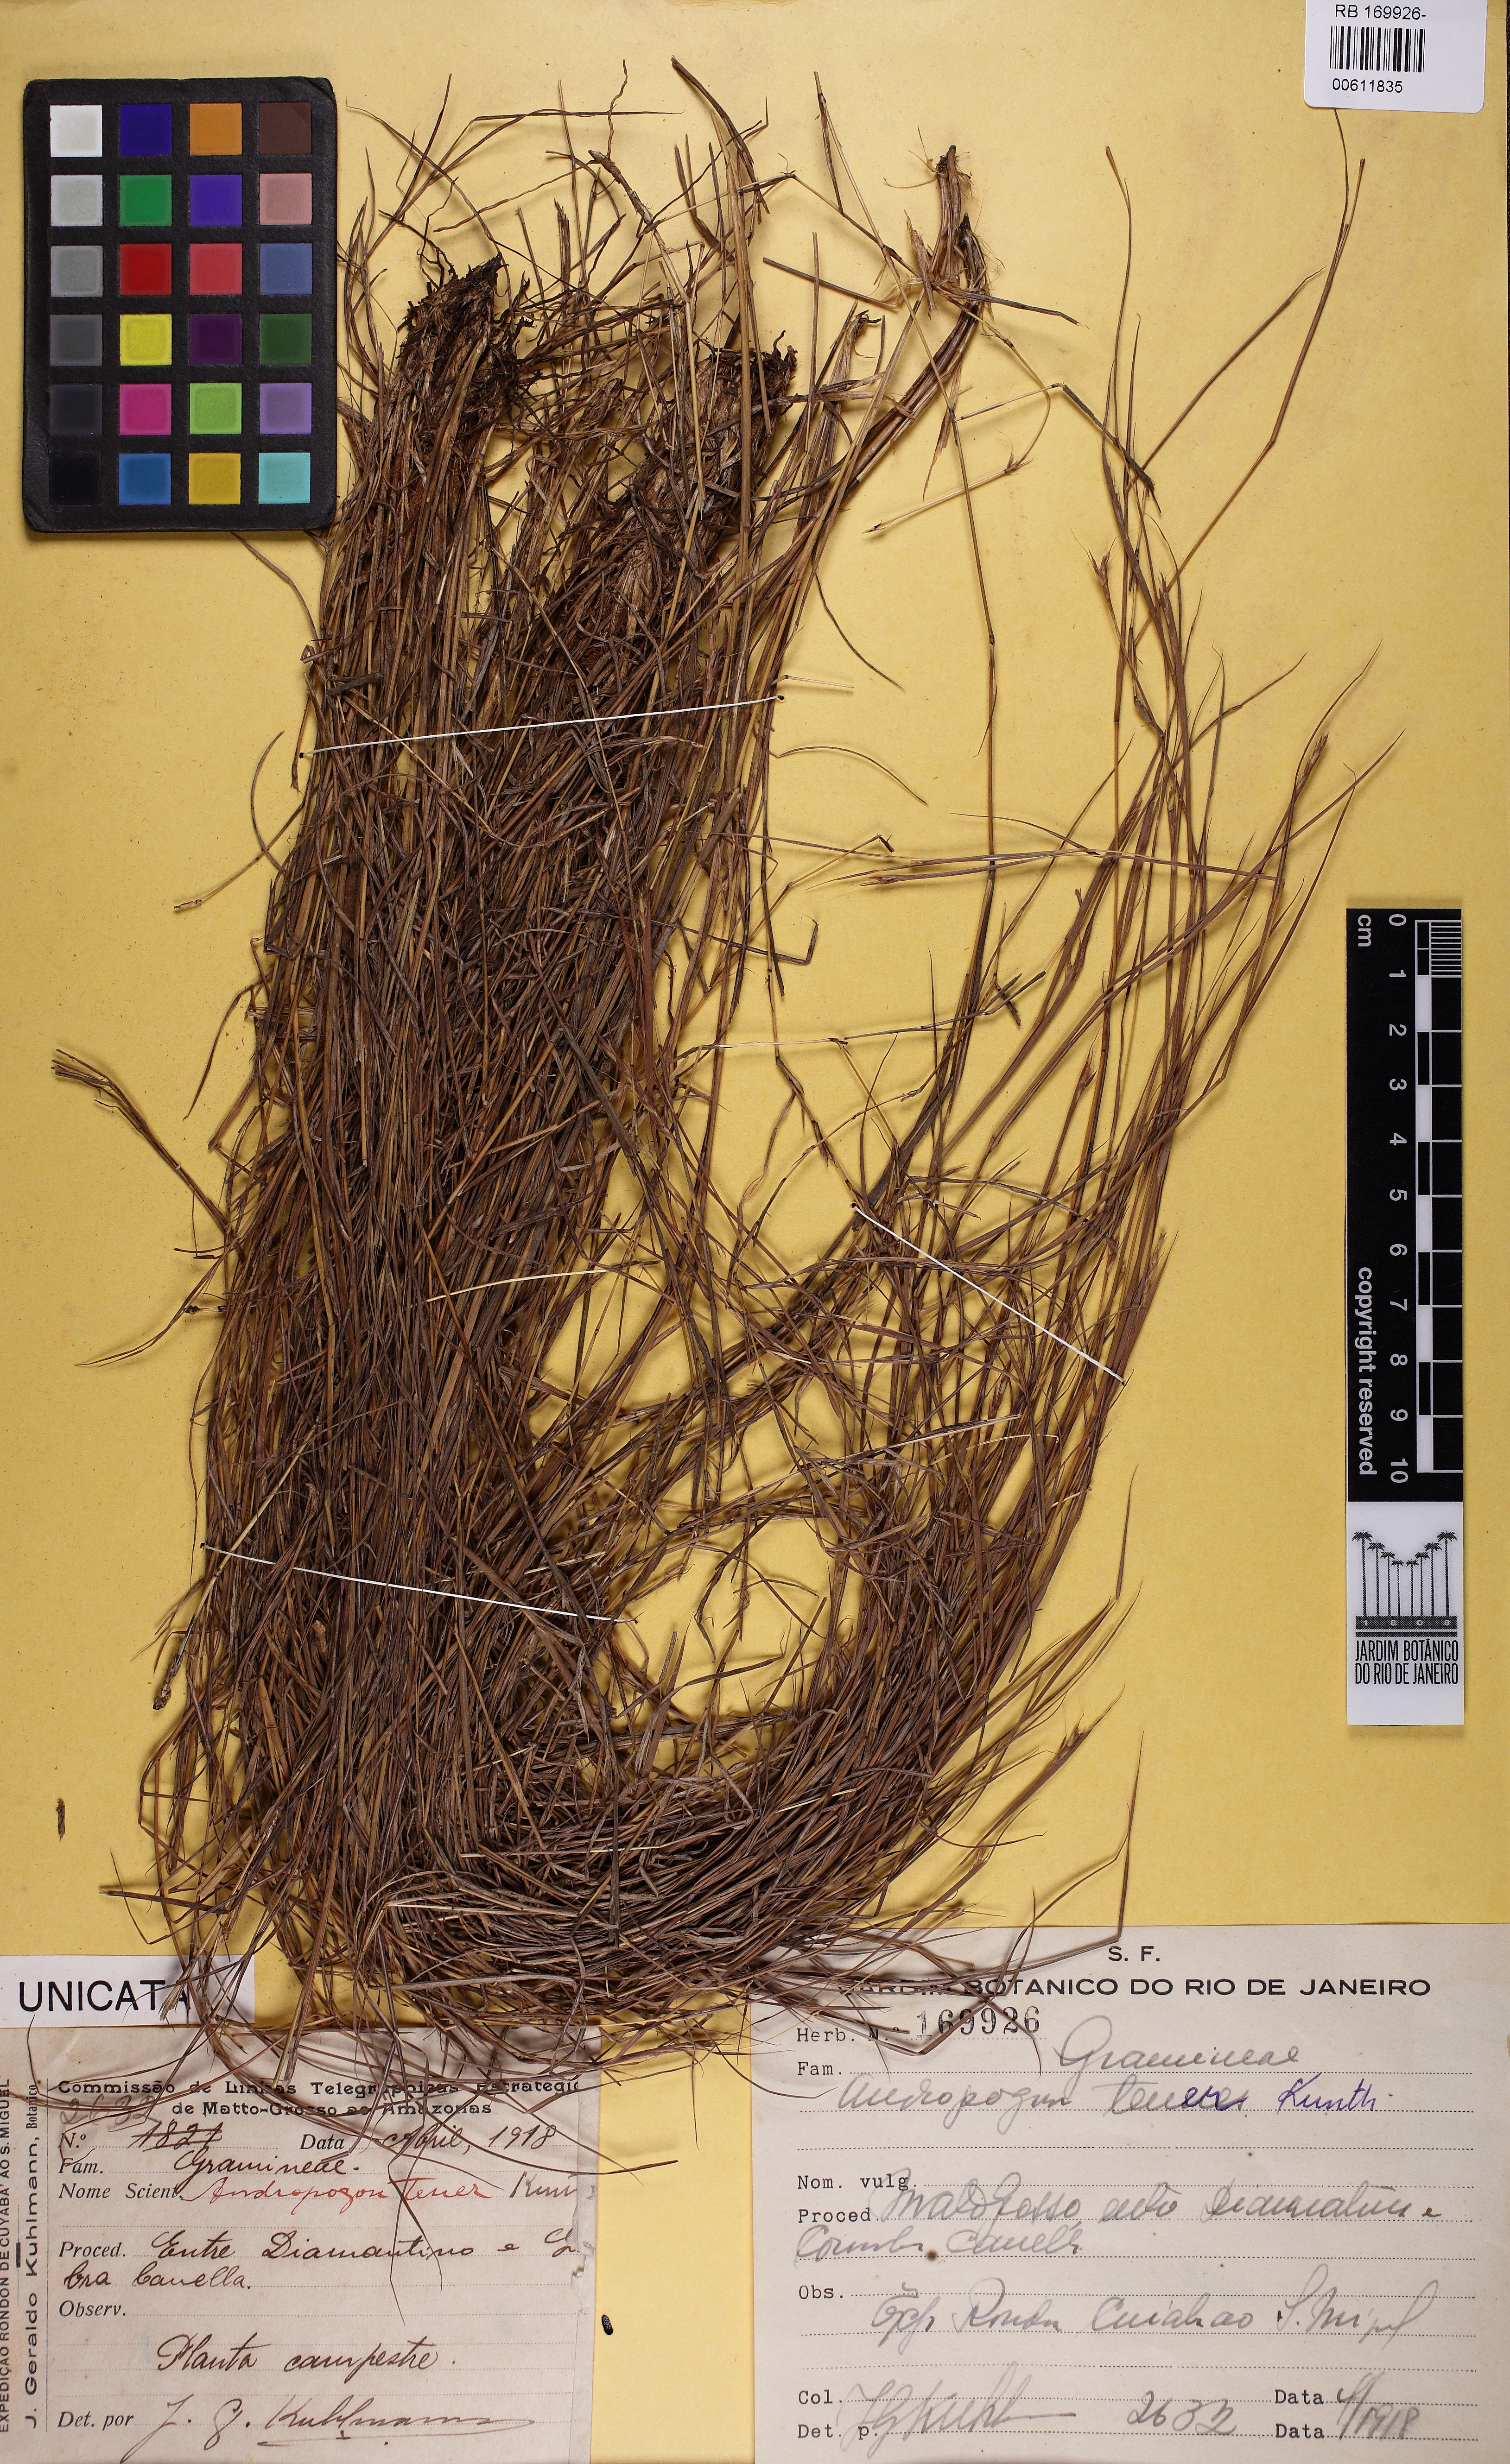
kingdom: Plantae
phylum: Tracheophyta
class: Liliopsida
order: Poales
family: Poaceae
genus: Andropogon
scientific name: Andropogon tener
